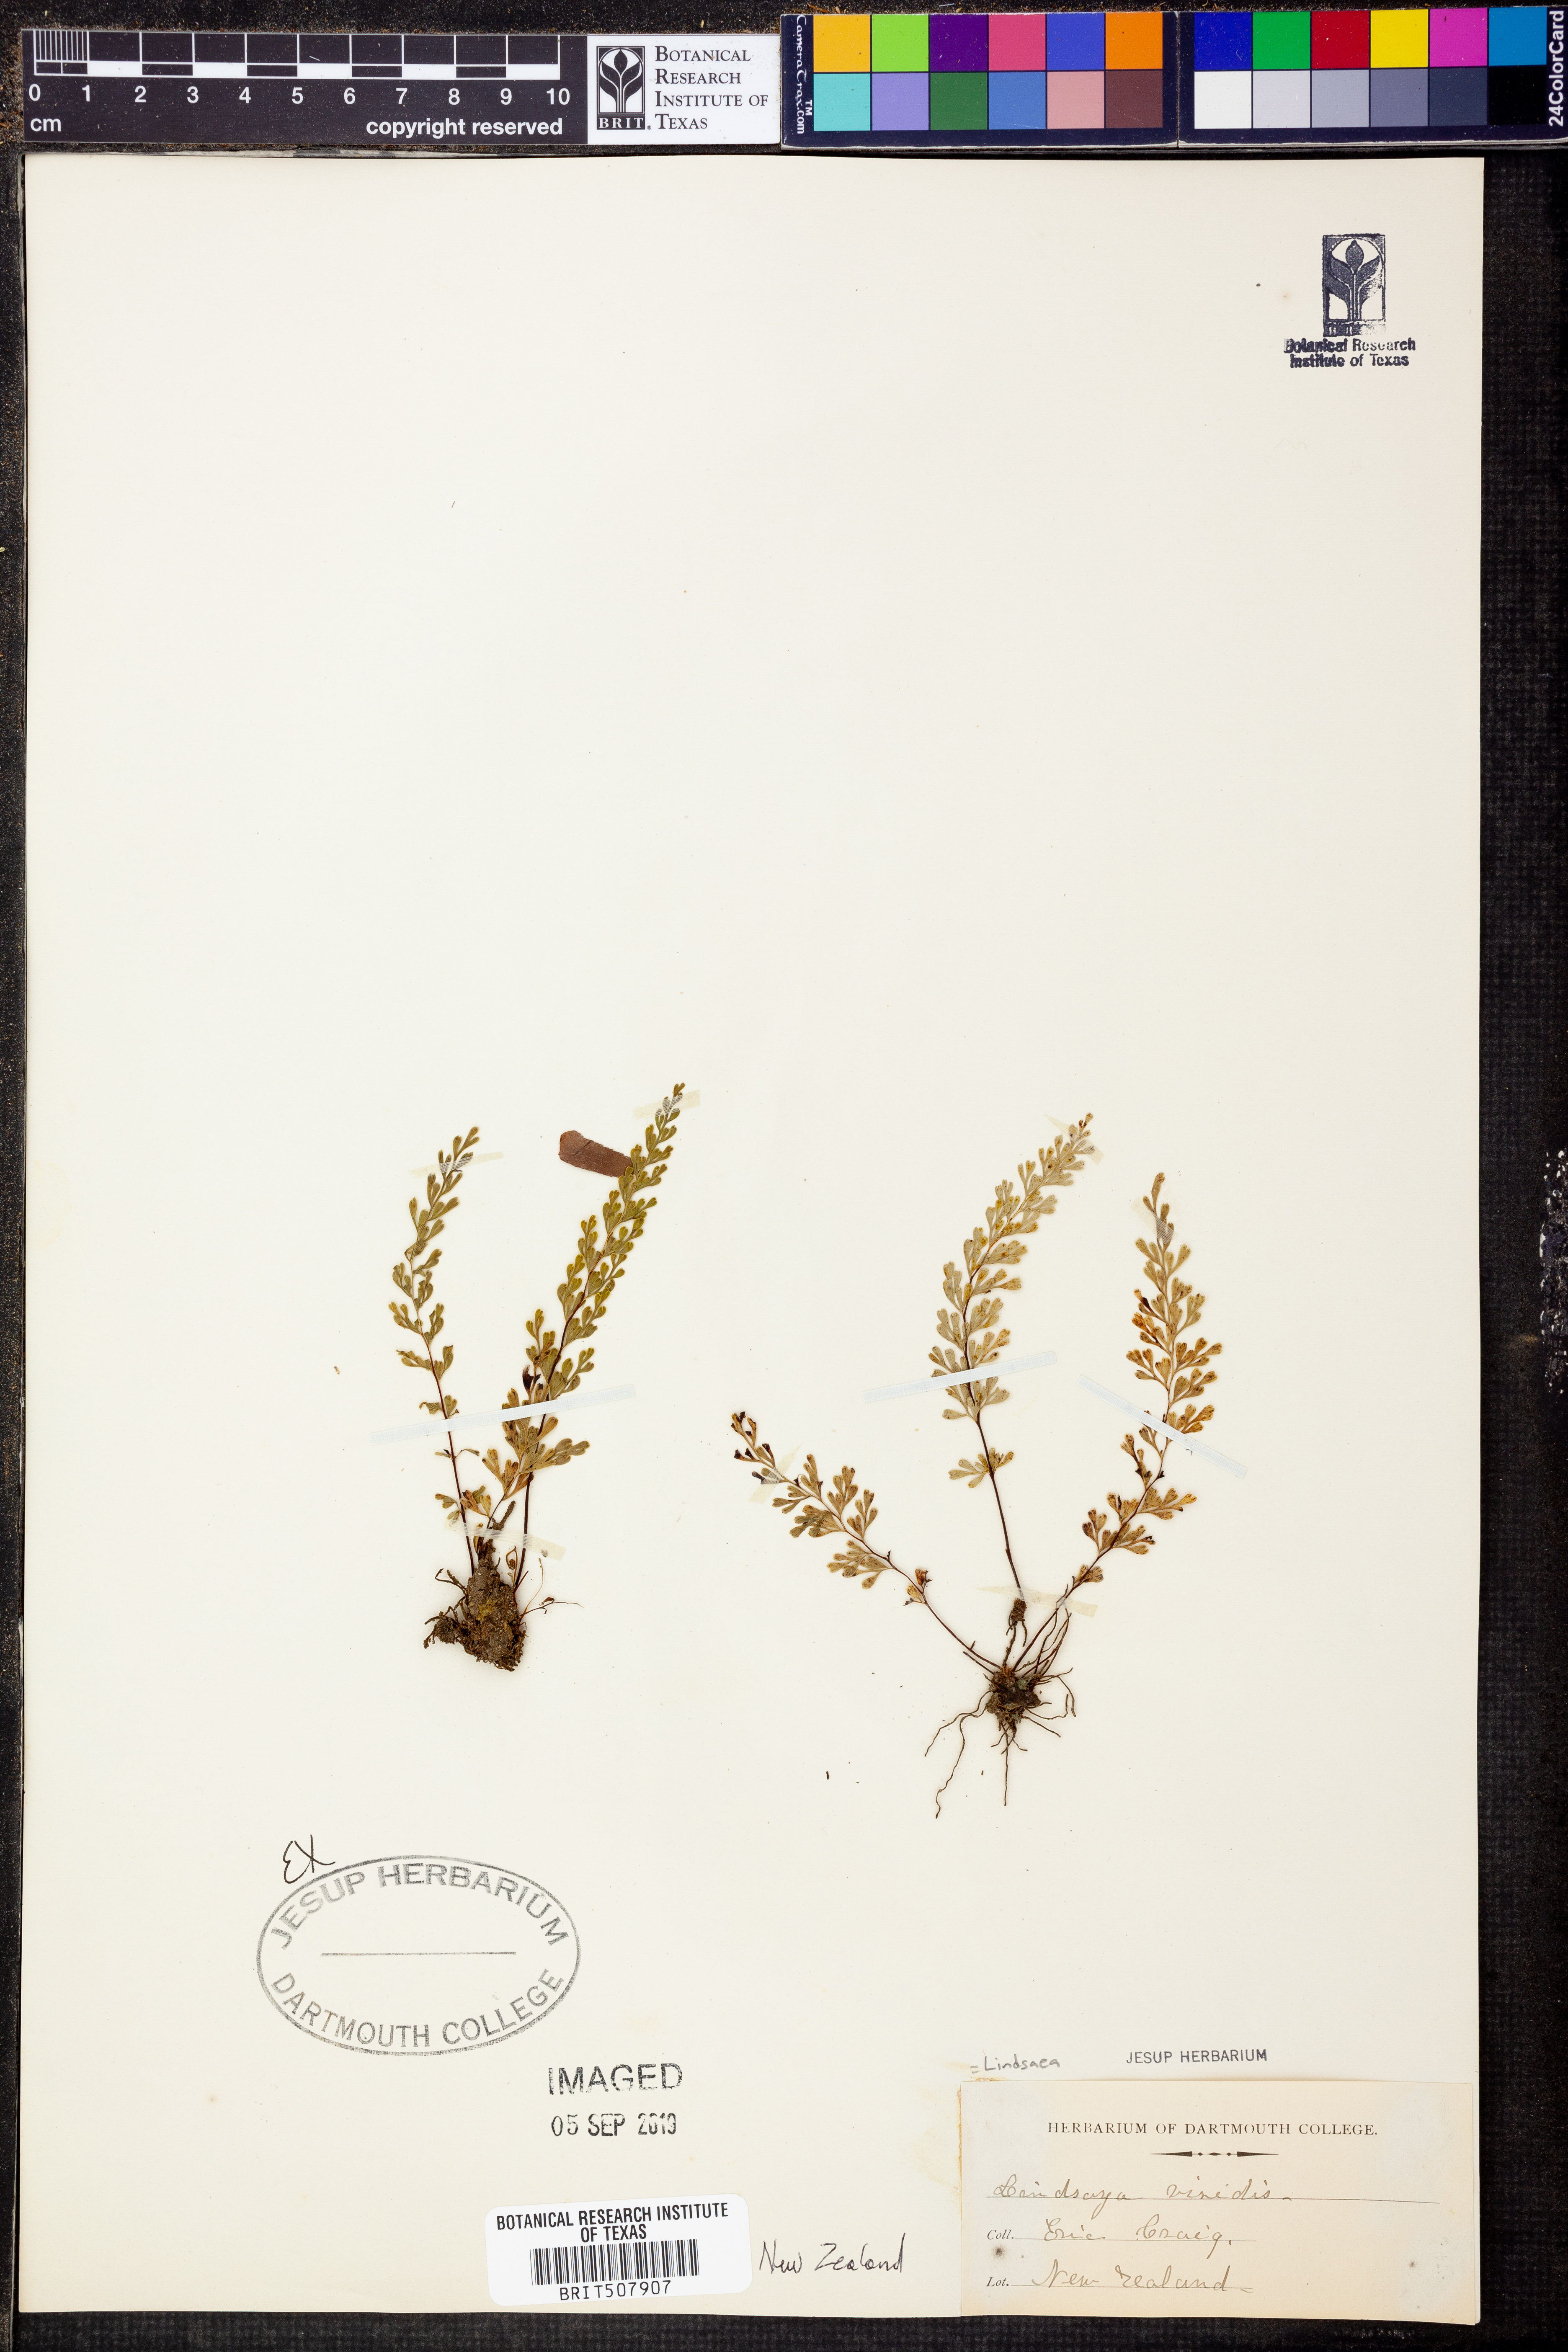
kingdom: Plantae
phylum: Tracheophyta
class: Polypodiopsida
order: Polypodiales
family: Lindsaeaceae
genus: Odontosoria
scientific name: Odontosoria viridis
